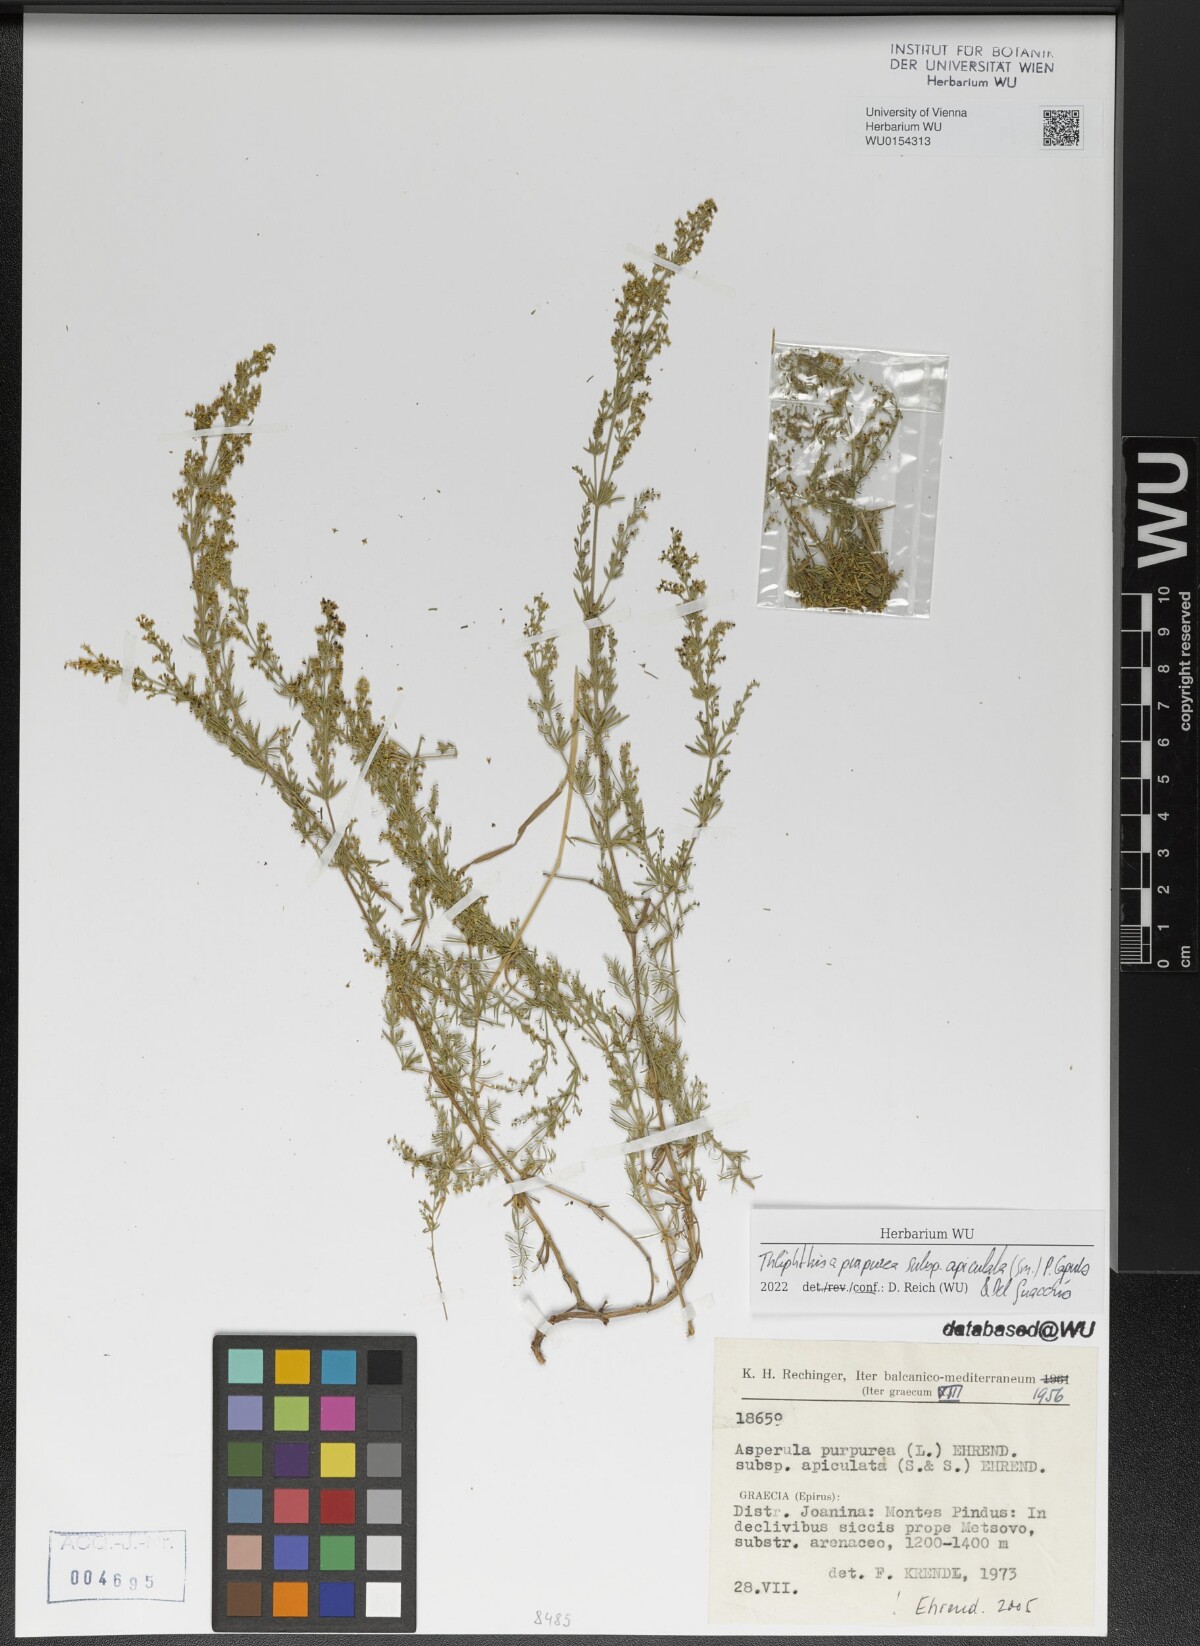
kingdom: Plantae
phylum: Tracheophyta
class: Magnoliopsida
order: Gentianales
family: Rubiaceae
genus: Thliphthisa
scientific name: Thliphthisa purpurea
